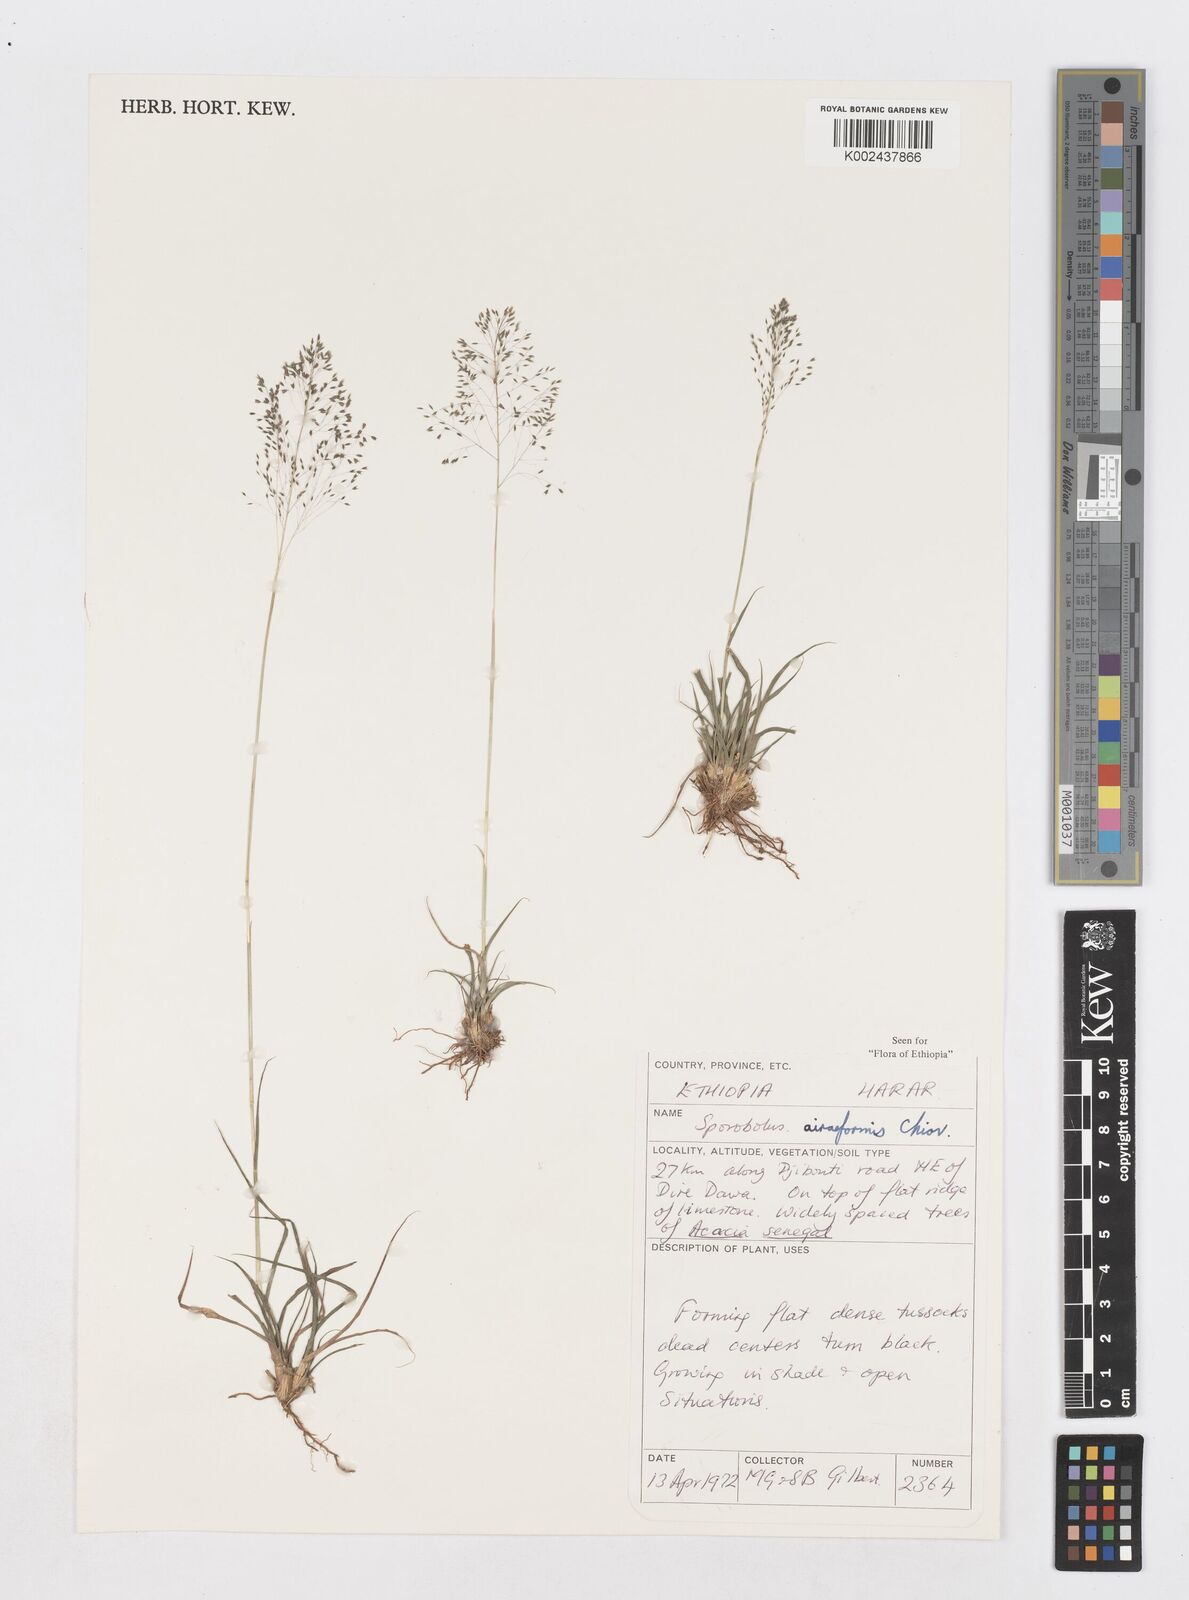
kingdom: Plantae
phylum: Tracheophyta
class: Liliopsida
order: Poales
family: Poaceae
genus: Sporobolus
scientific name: Sporobolus airiformis
